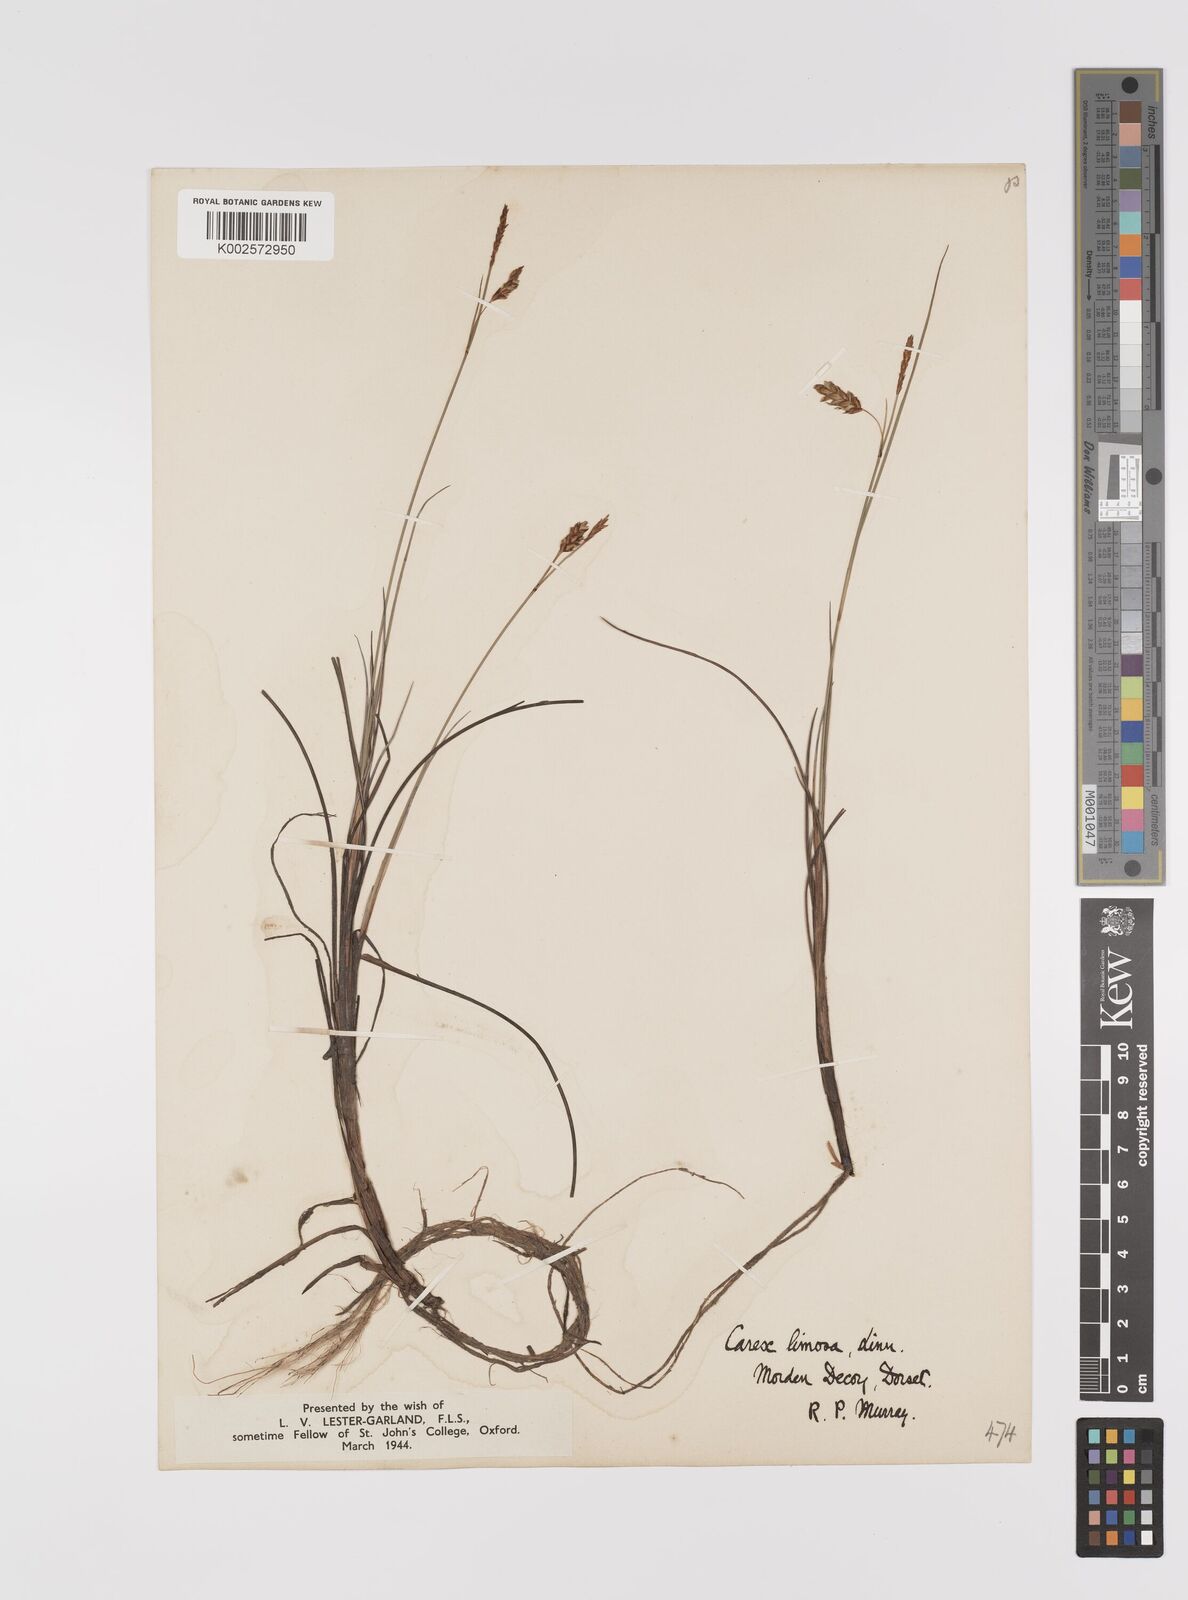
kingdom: Plantae
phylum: Tracheophyta
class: Liliopsida
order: Poales
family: Cyperaceae
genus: Carex
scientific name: Carex limosa
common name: Bog sedge
